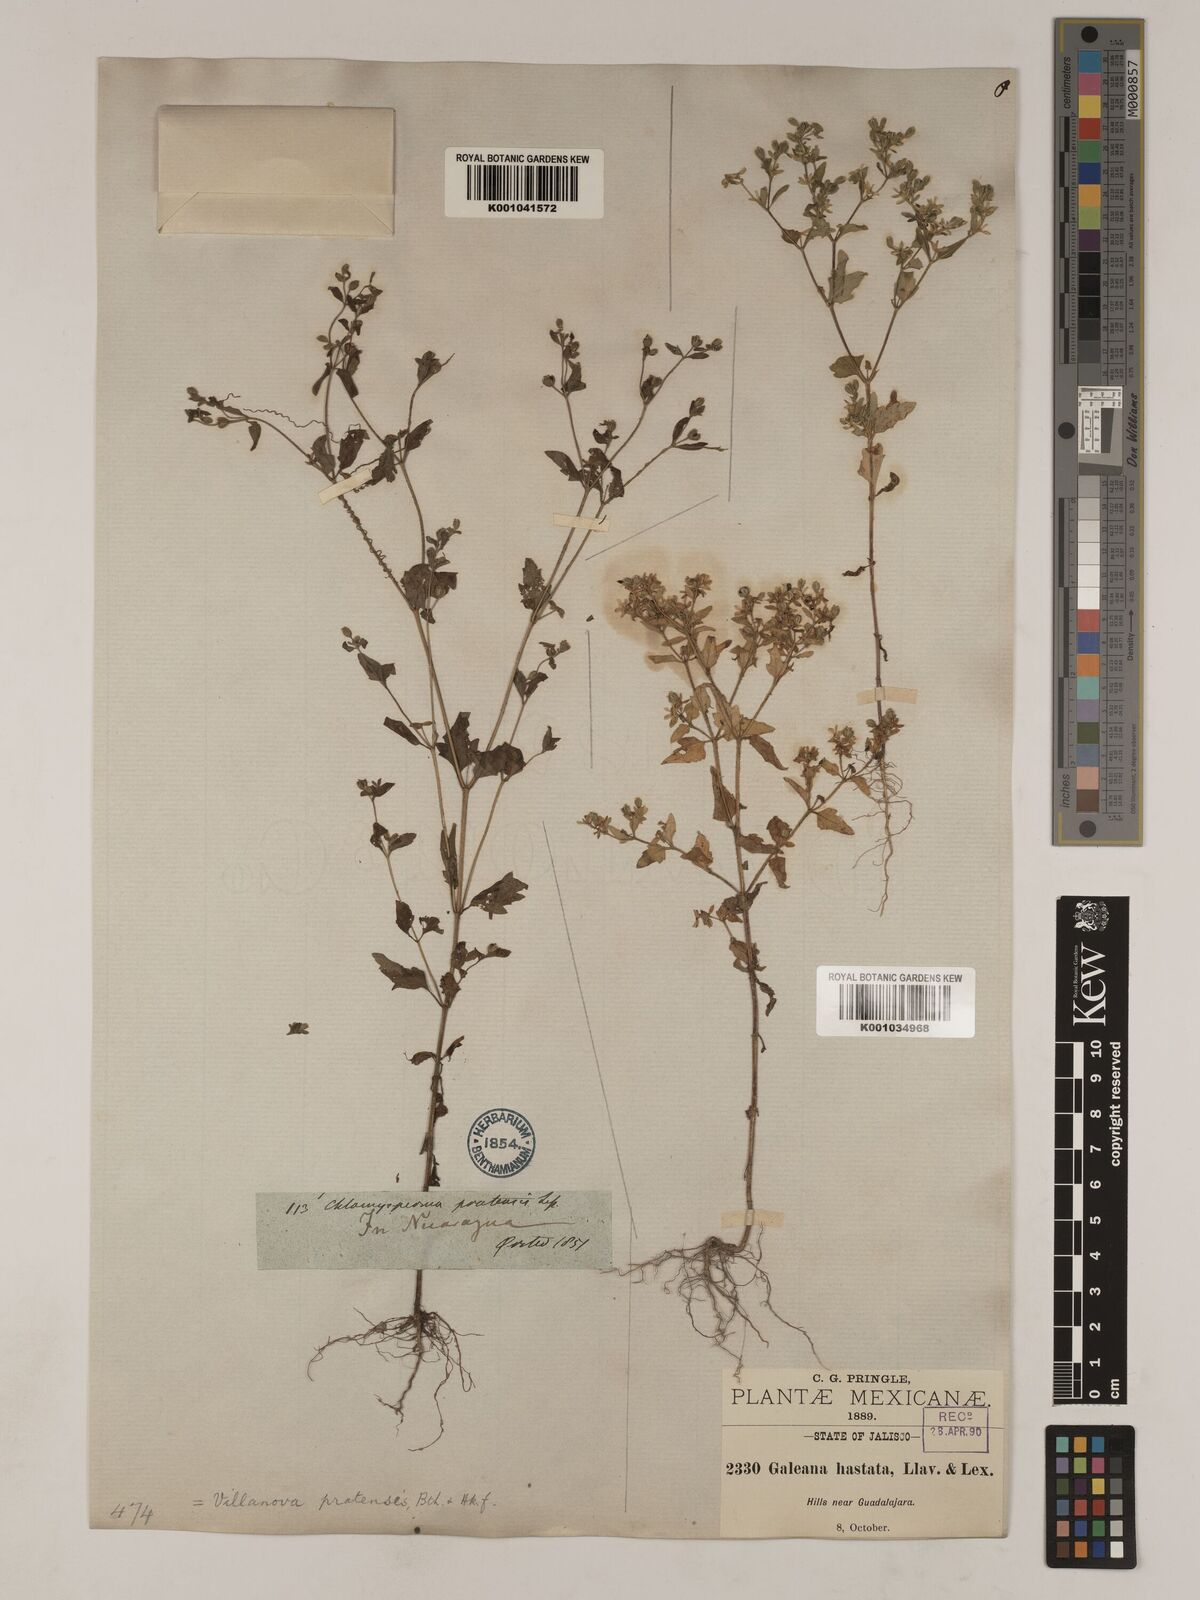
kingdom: Plantae
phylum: Tracheophyta
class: Magnoliopsida
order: Asterales
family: Asteraceae
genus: Galeana
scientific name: Galeana pratensis
